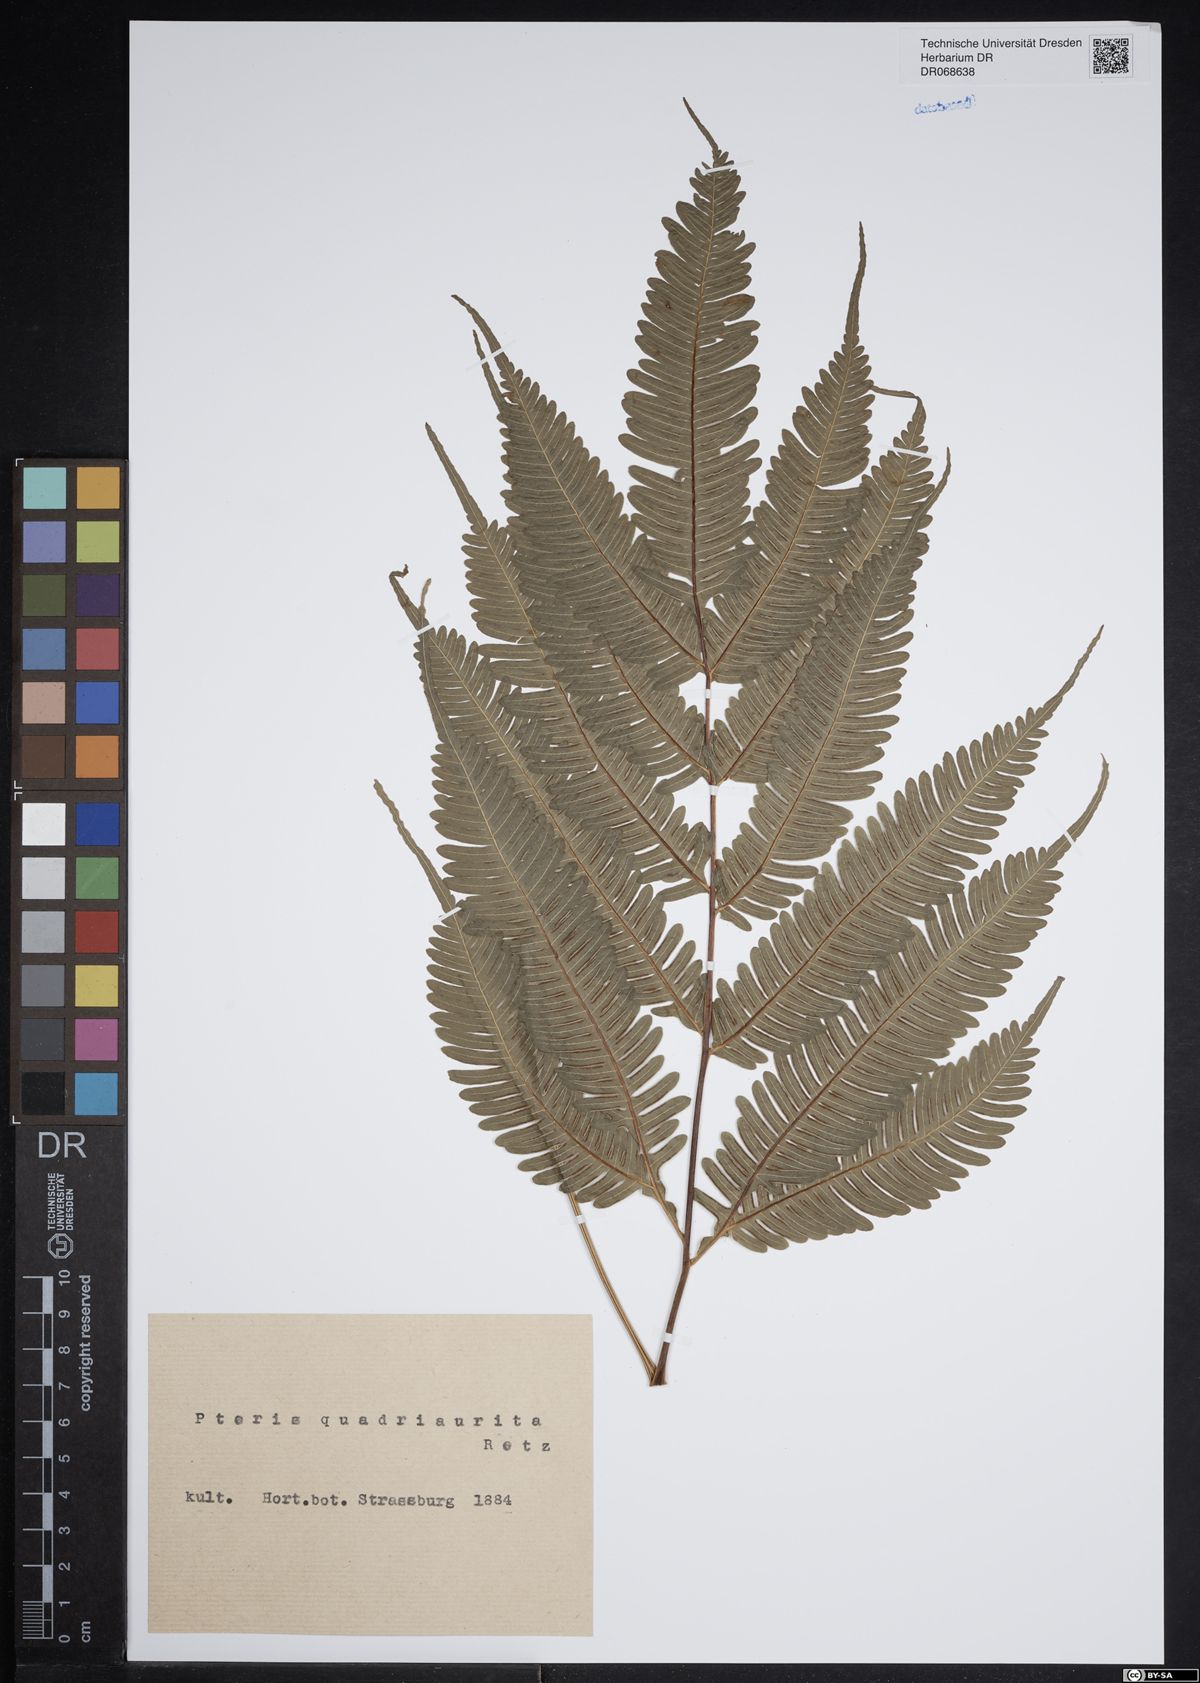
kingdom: Plantae
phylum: Tracheophyta
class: Polypodiopsida
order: Polypodiales
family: Pteridaceae
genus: Pteris
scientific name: Pteris quadriaurita
